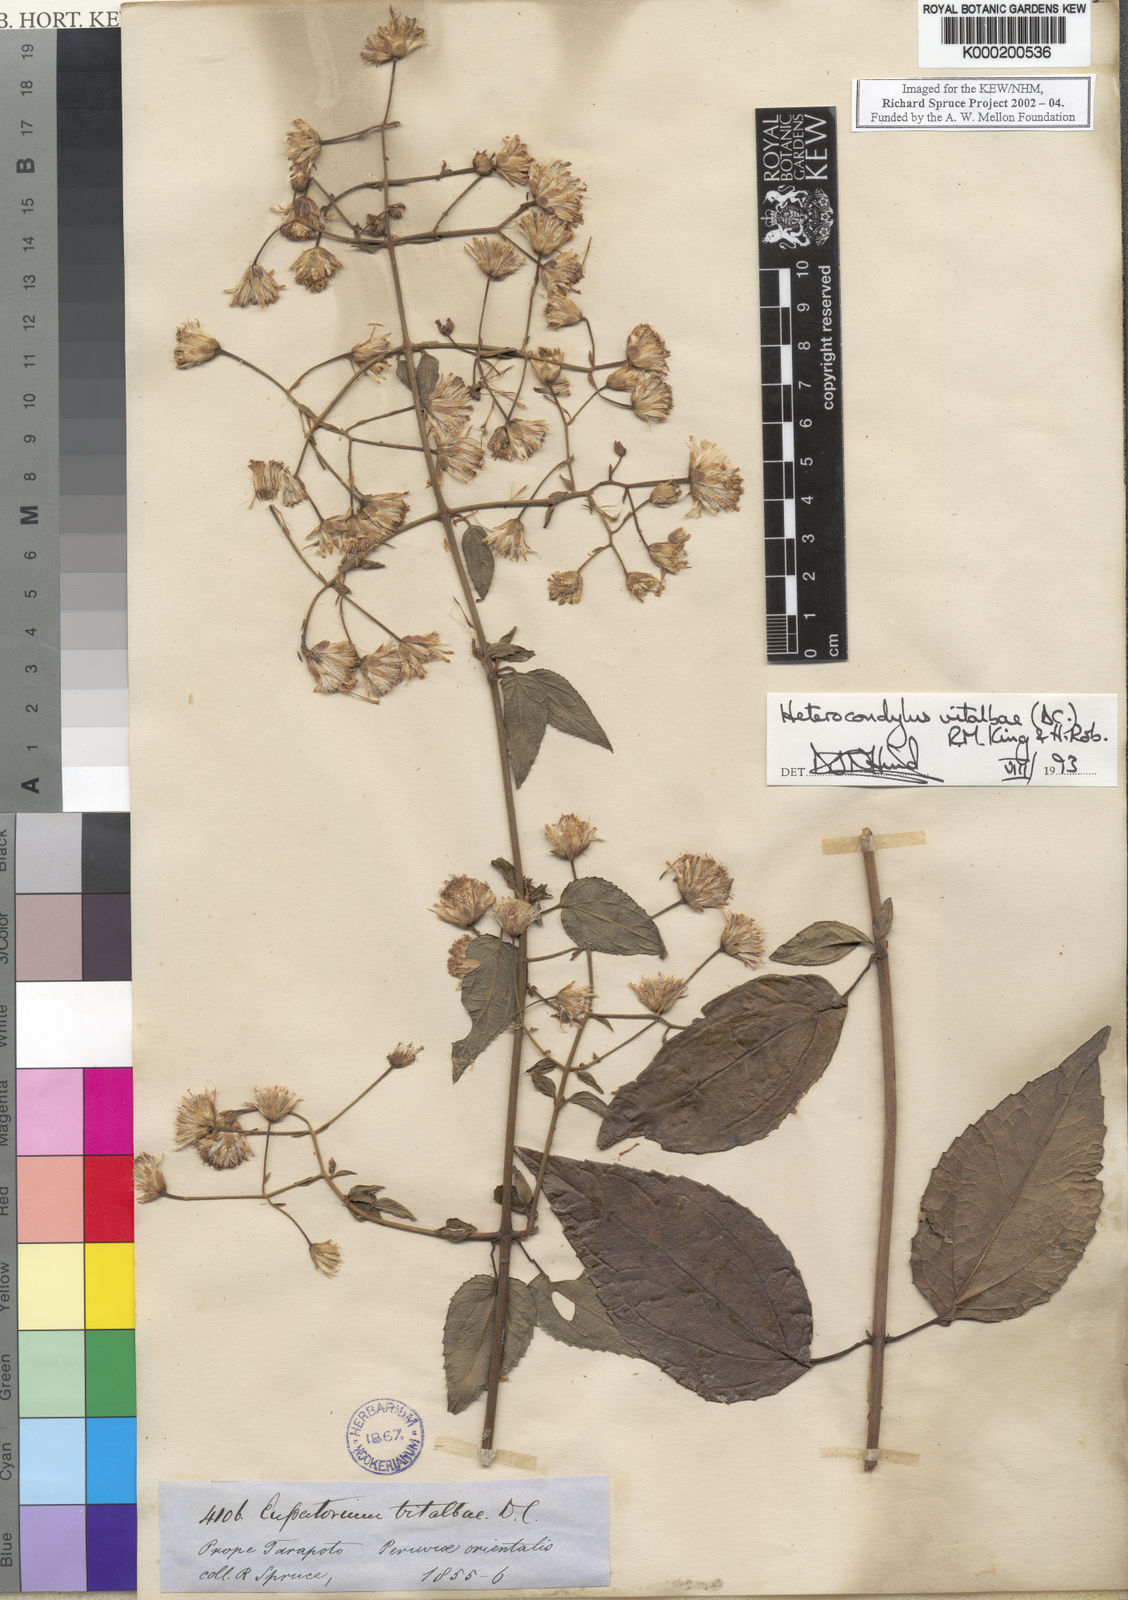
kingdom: Plantae
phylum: Tracheophyta
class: Magnoliopsida
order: Asterales
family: Asteraceae
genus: Heterocondylus
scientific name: Heterocondylus vitalbae
